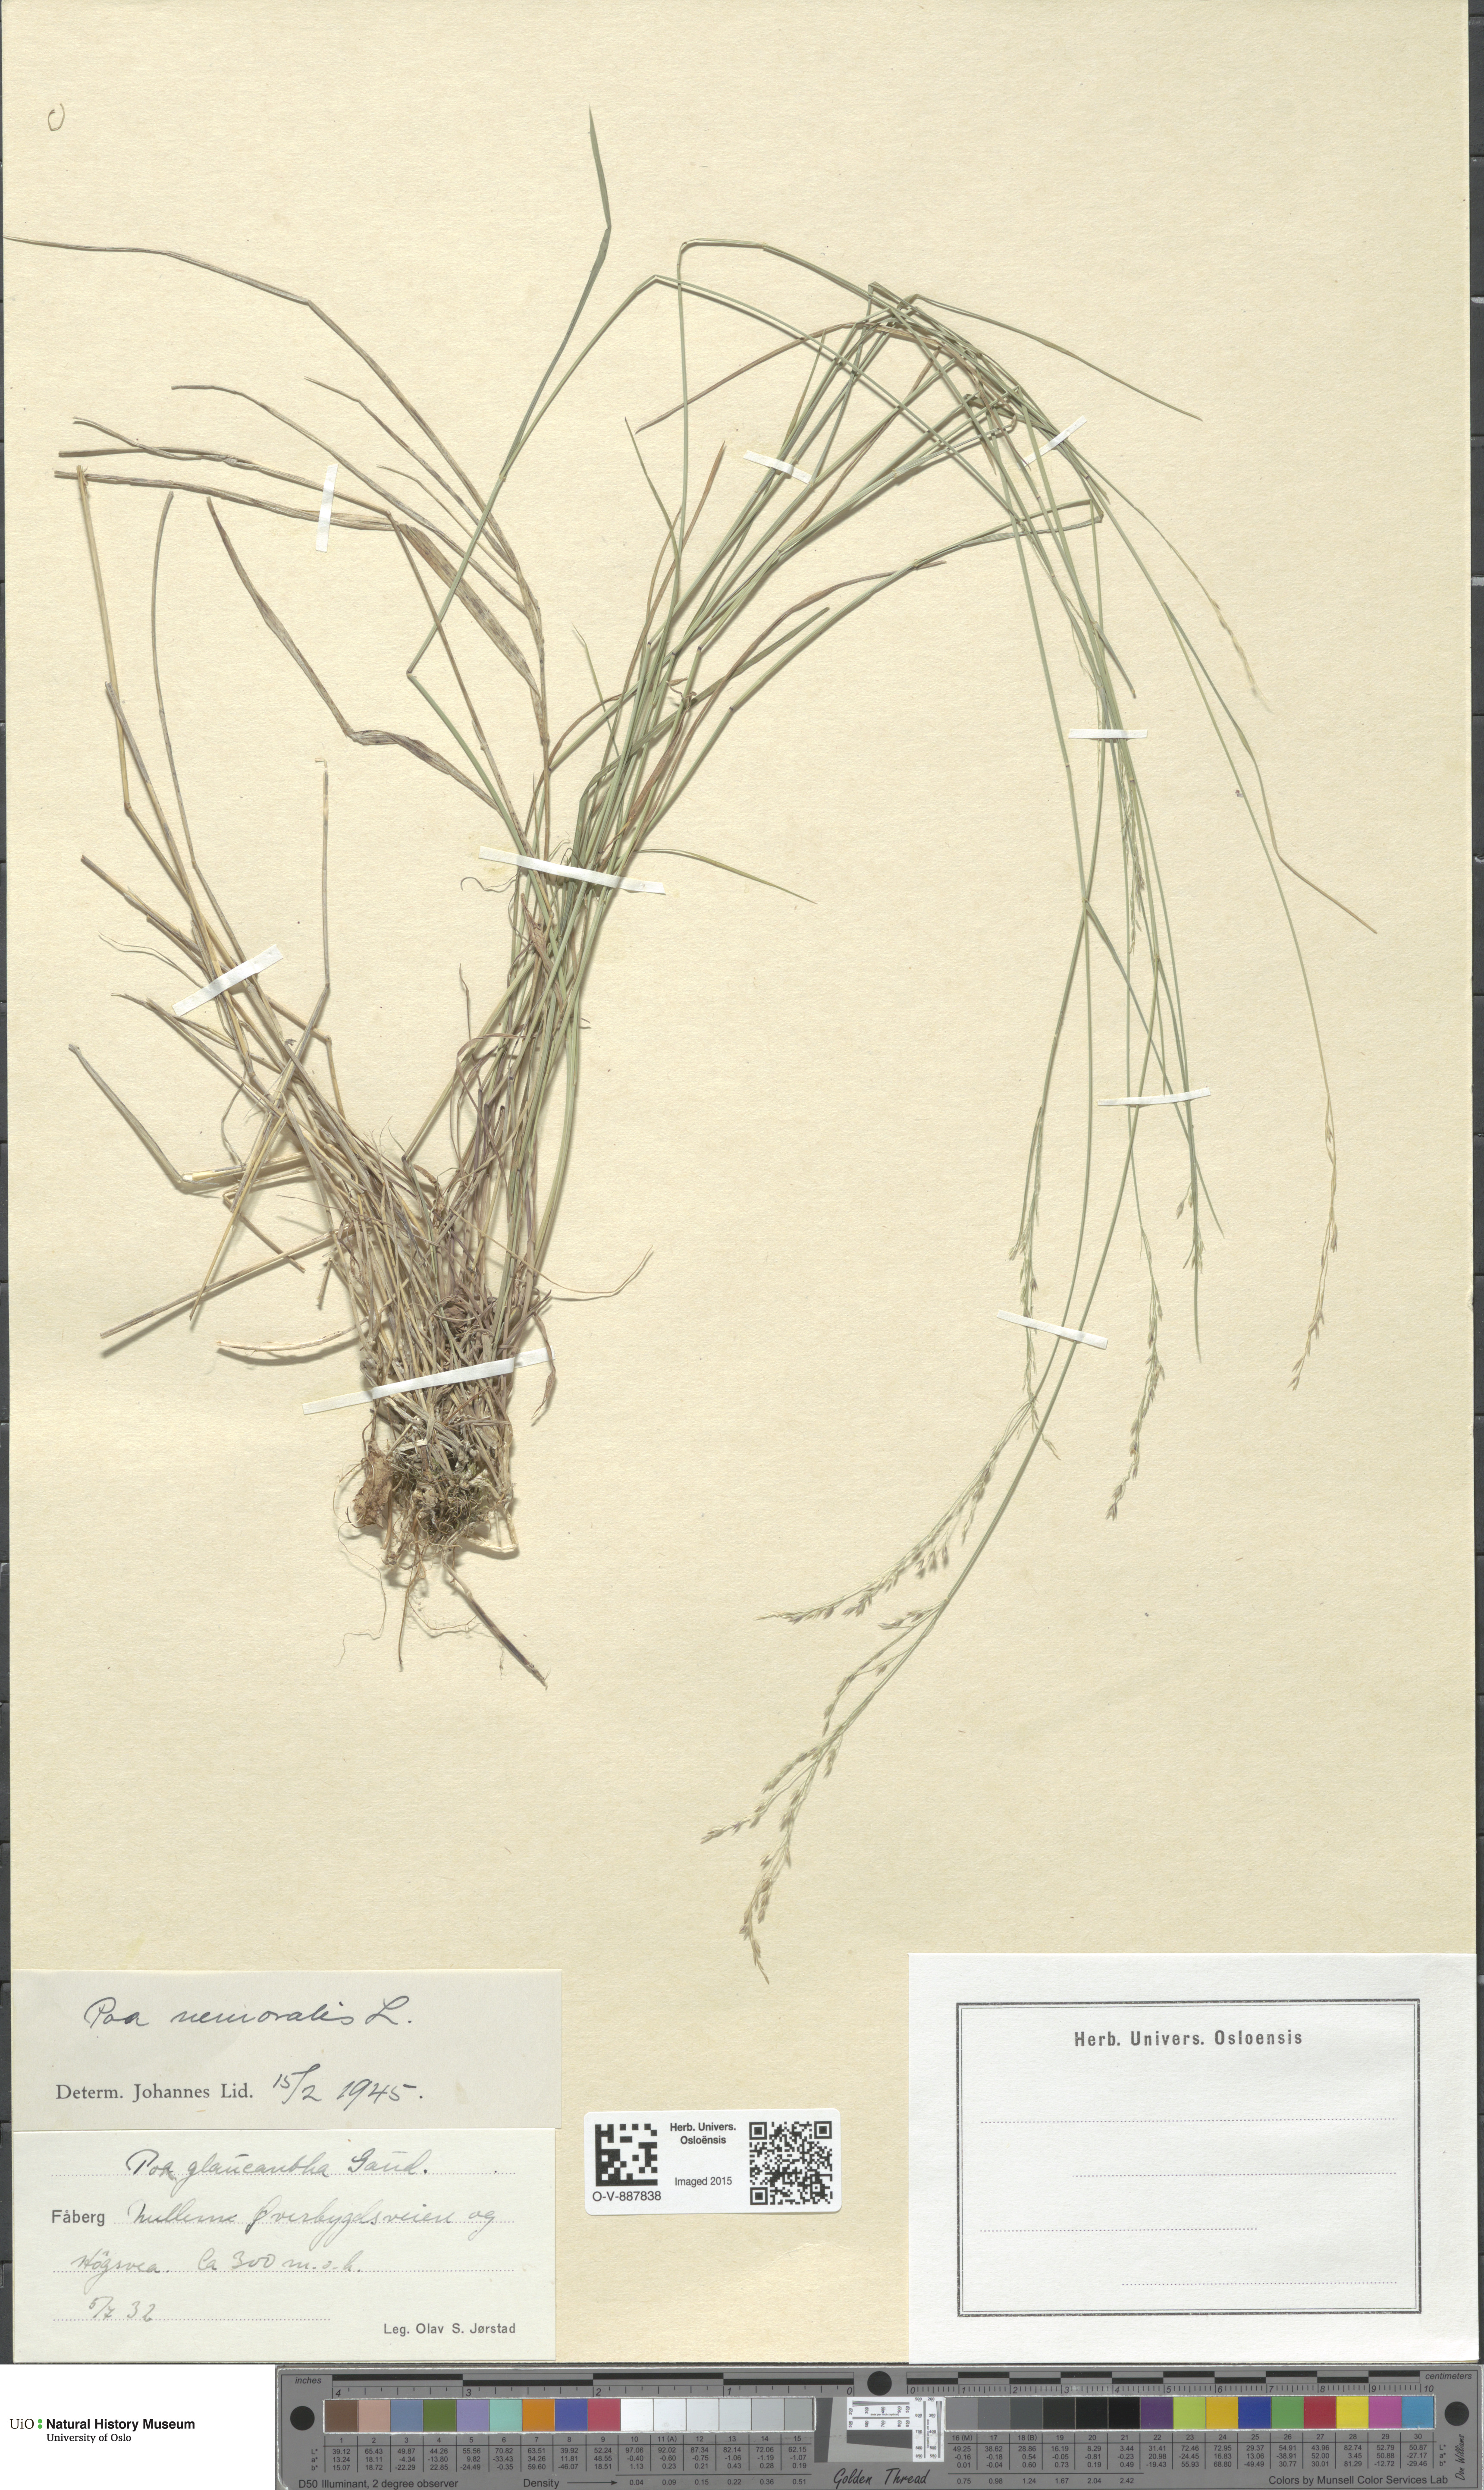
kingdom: Plantae
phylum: Tracheophyta
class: Liliopsida
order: Poales
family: Poaceae
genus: Poa
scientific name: Poa nemoralis
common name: Wood bluegrass
